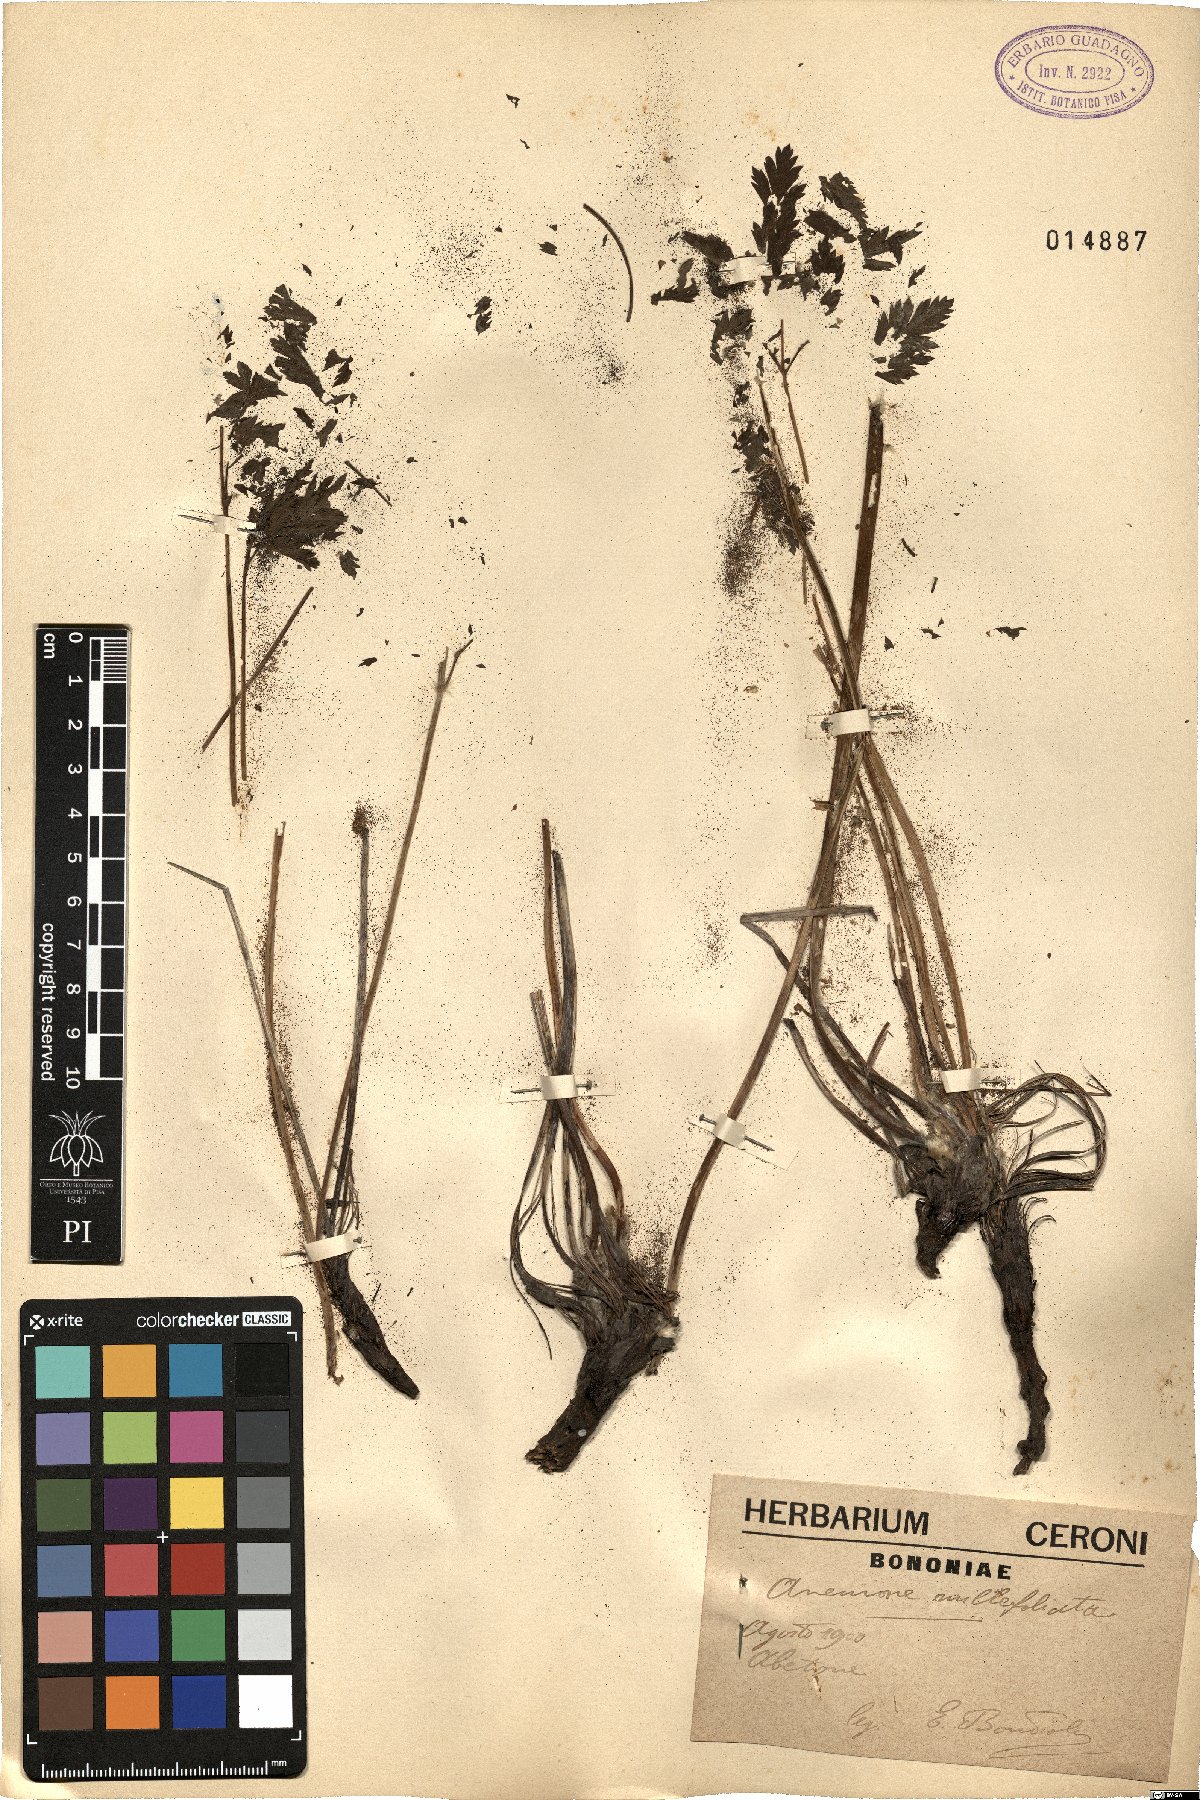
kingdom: Plantae
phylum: Tracheophyta
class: Magnoliopsida
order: Ranunculales
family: Ranunculaceae
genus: Pulsatilla
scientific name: Pulsatilla alpina
